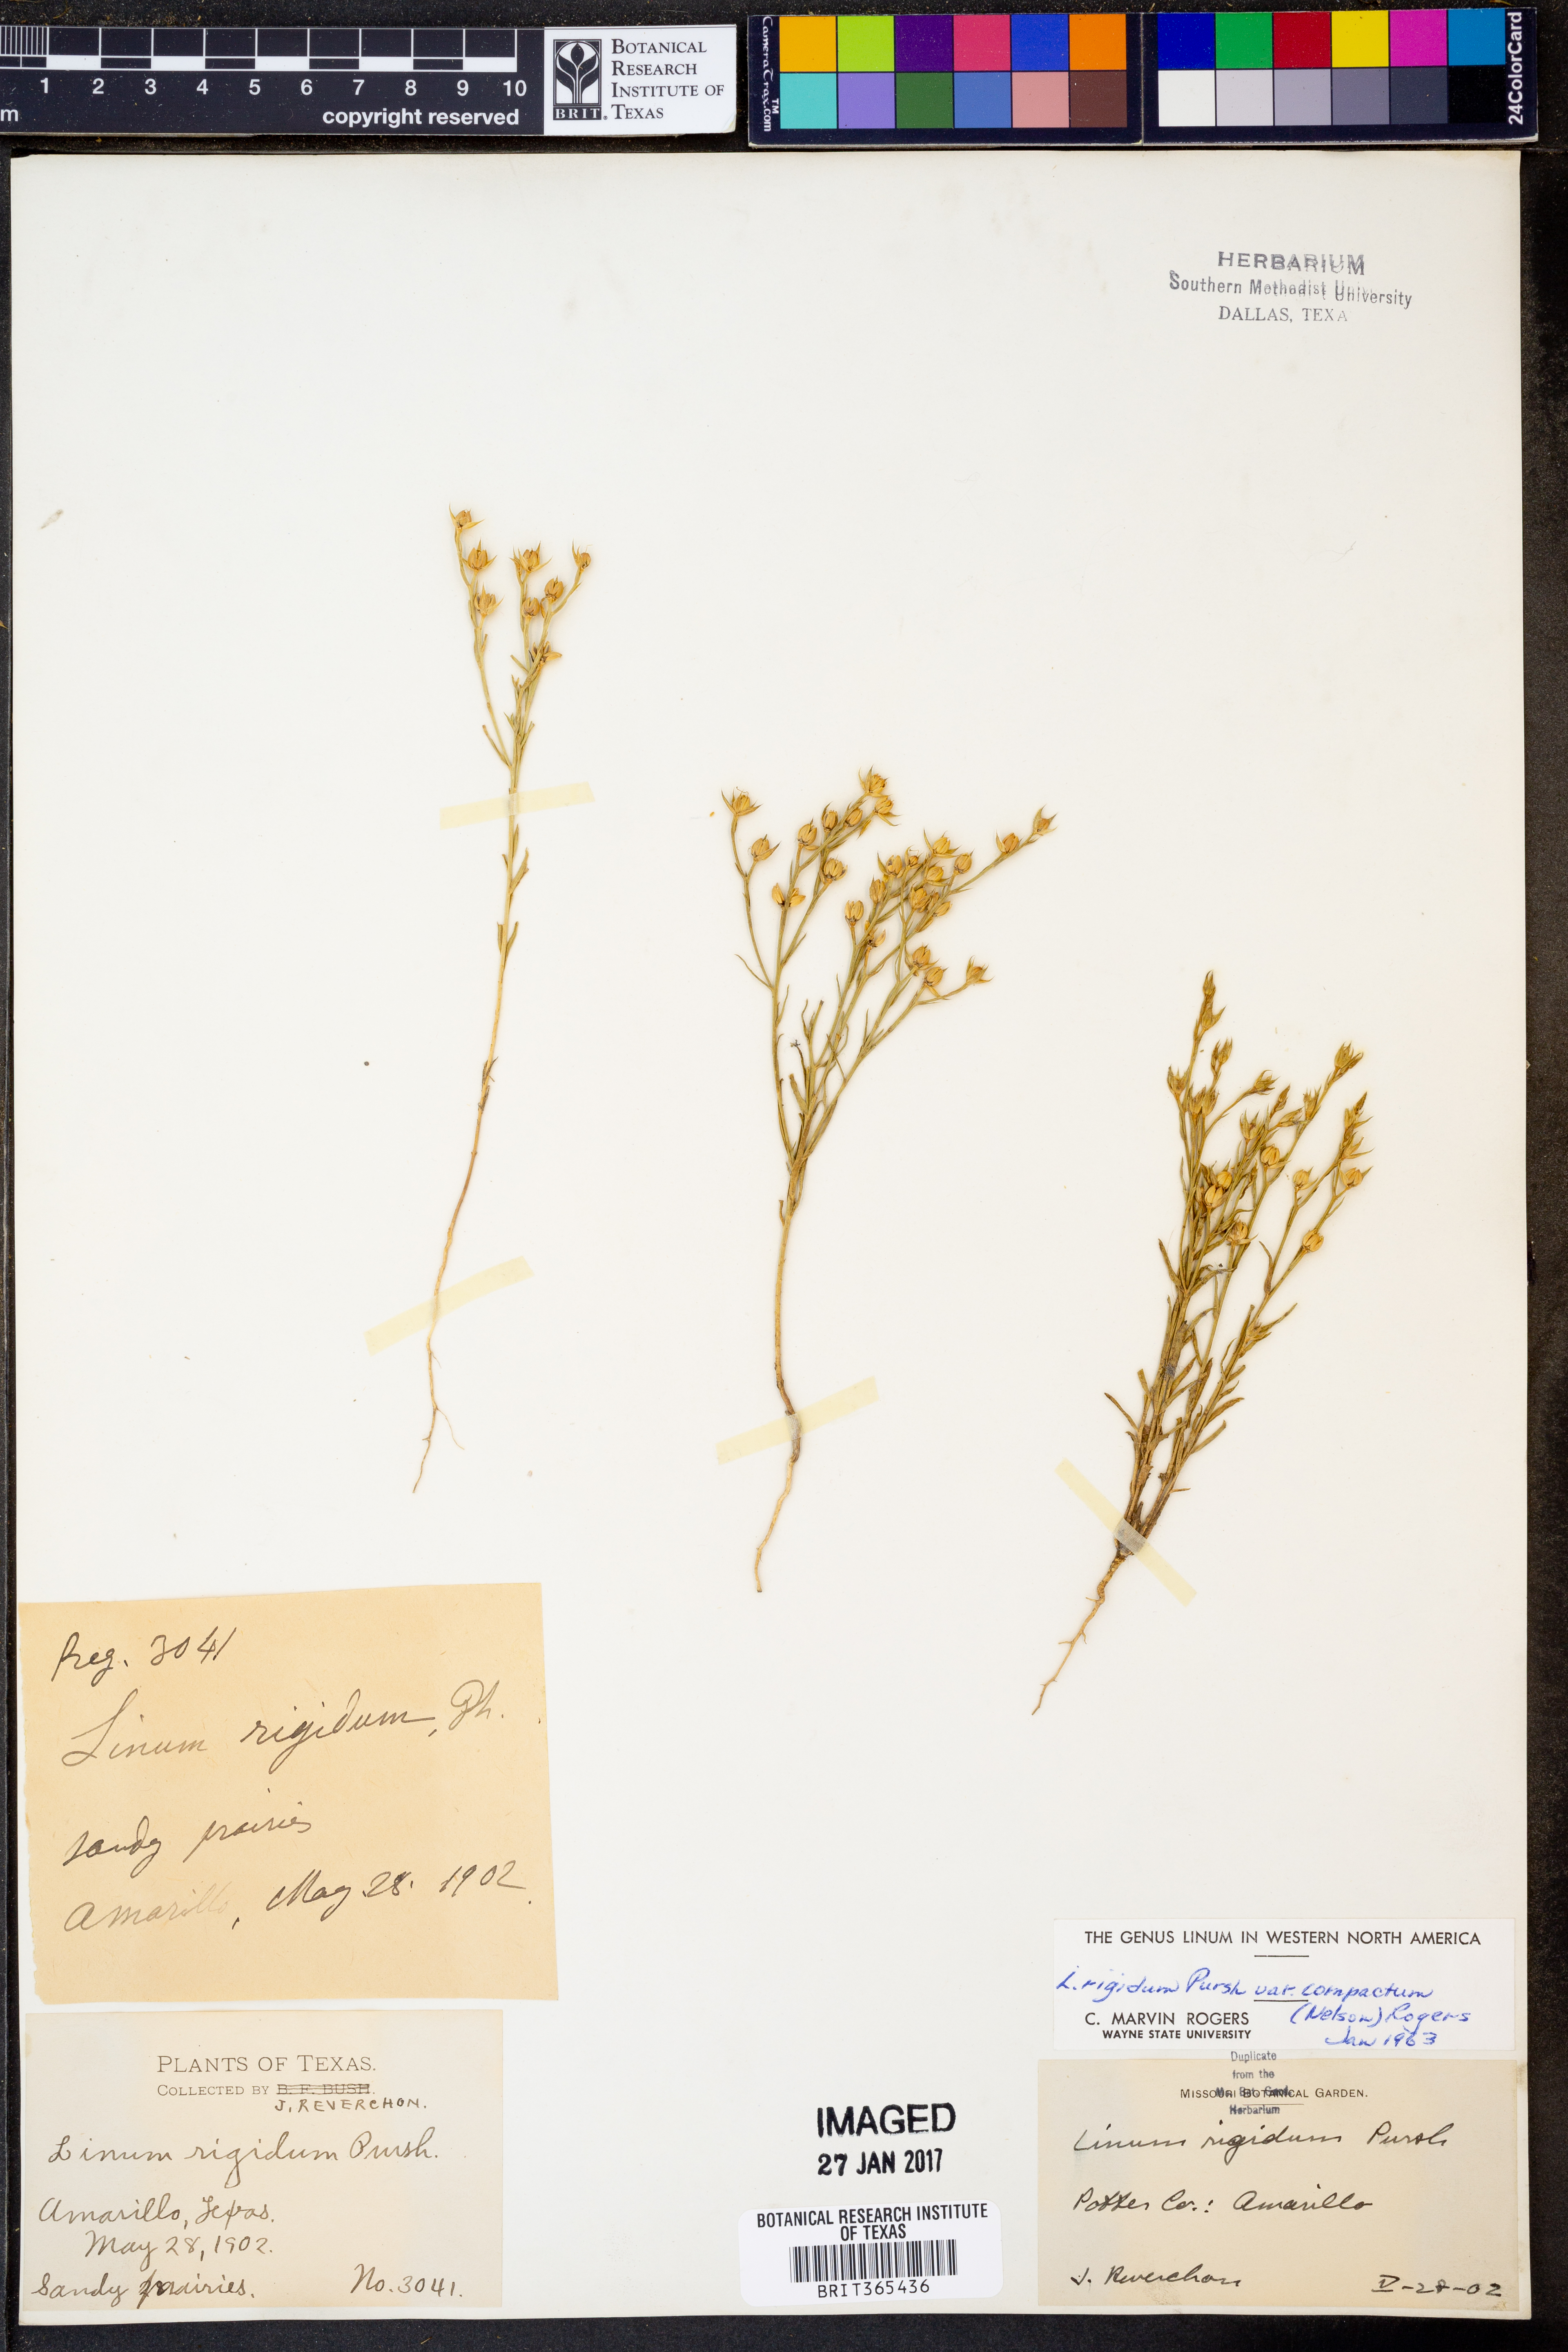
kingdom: Plantae
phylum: Tracheophyta
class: Magnoliopsida
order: Malpighiales
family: Linaceae
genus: Linum
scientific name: Linum compactum
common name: Wyoming flax
